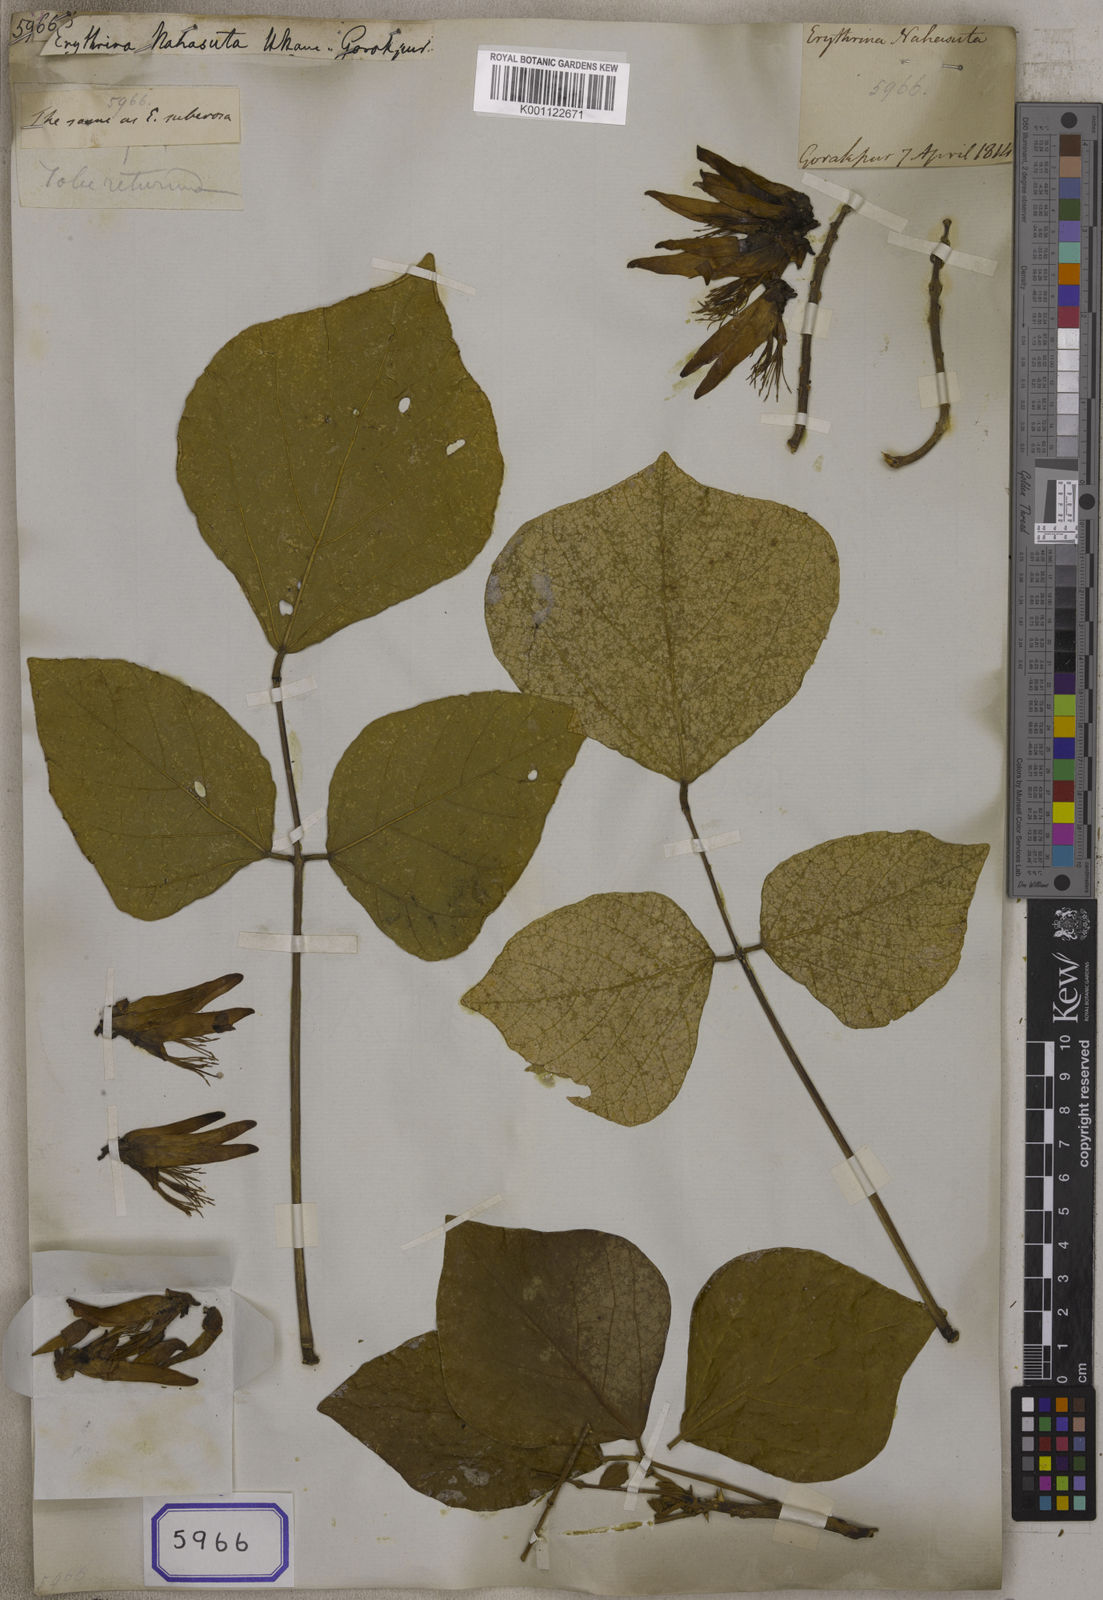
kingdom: Plantae
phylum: Tracheophyta
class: Magnoliopsida
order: Fabales
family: Fabaceae
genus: Erythrina
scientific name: Erythrina suberosa
